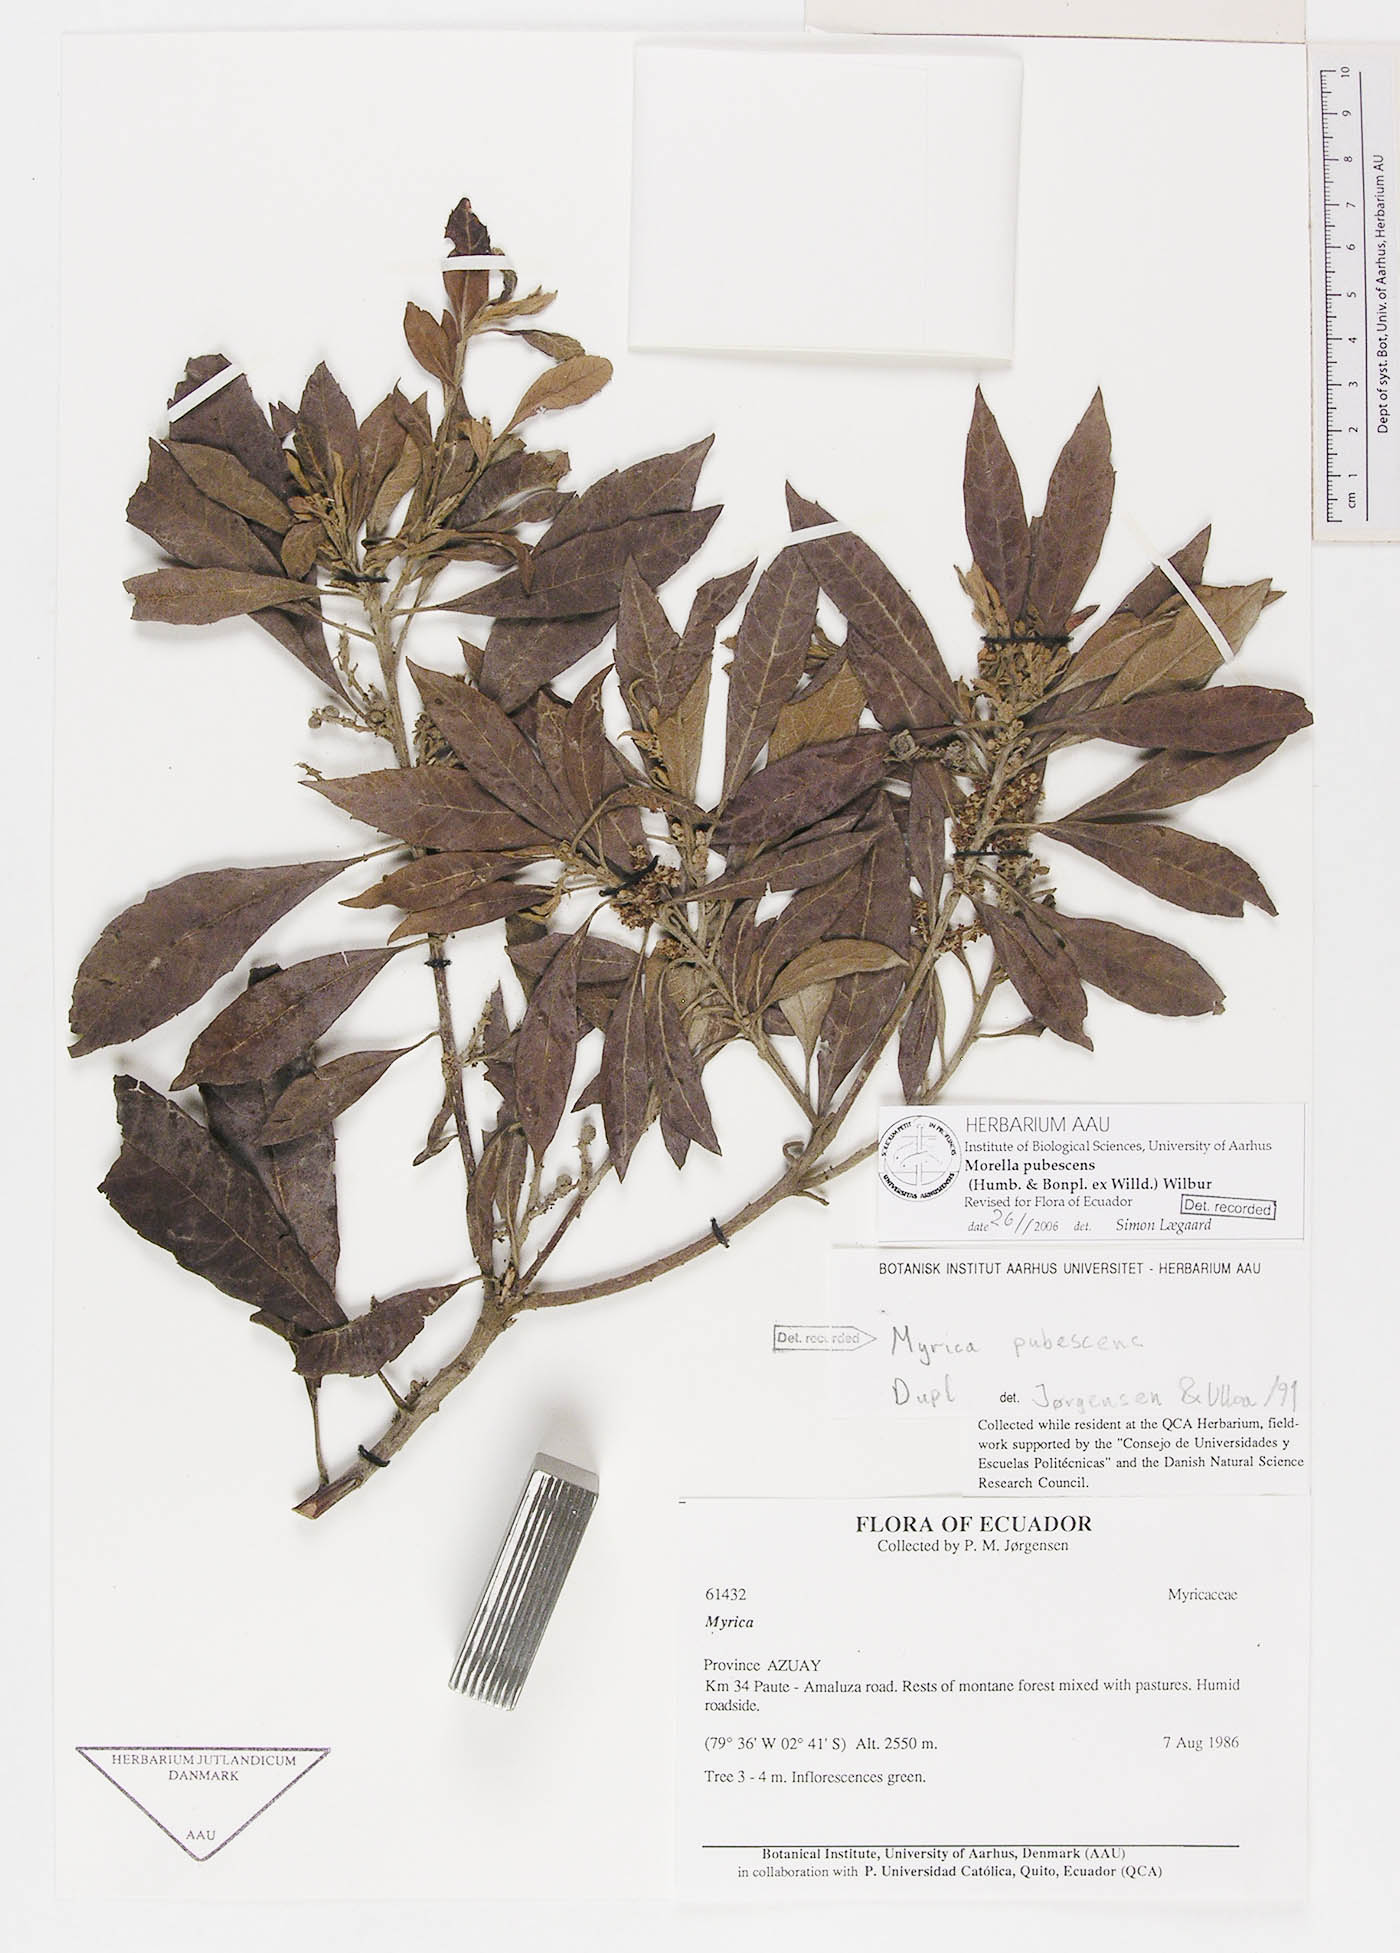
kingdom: Plantae
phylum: Tracheophyta
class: Magnoliopsida
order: Fagales
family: Myricaceae
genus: Morella
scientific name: Morella pubescens
